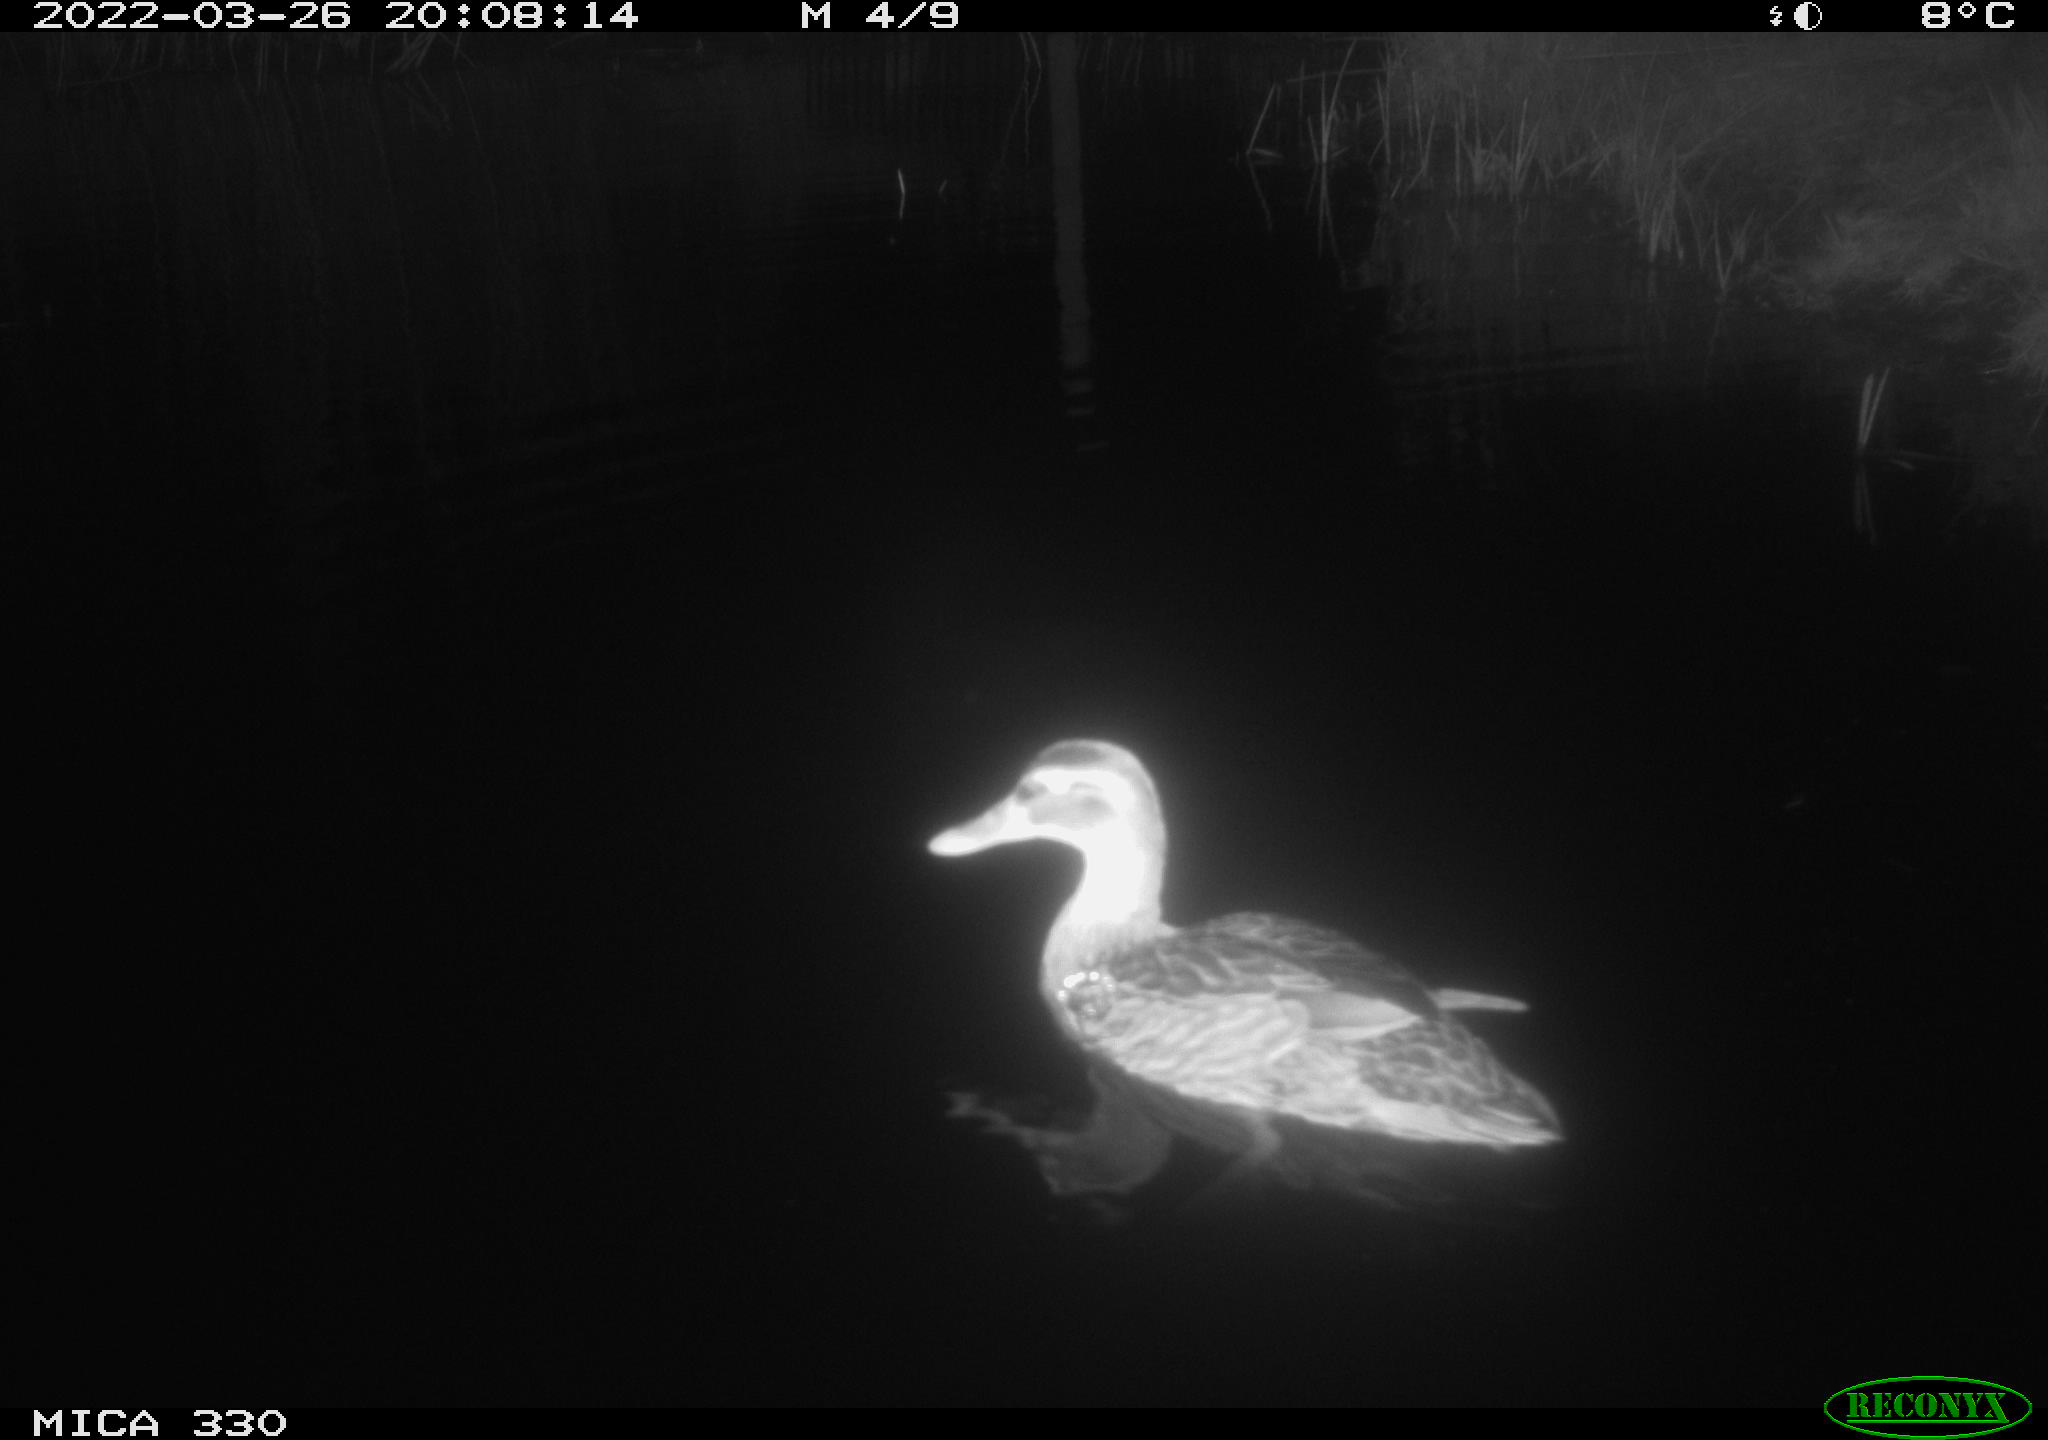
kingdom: Animalia
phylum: Chordata
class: Aves
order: Anseriformes
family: Anatidae
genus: Anas
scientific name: Anas platyrhynchos
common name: Mallard
